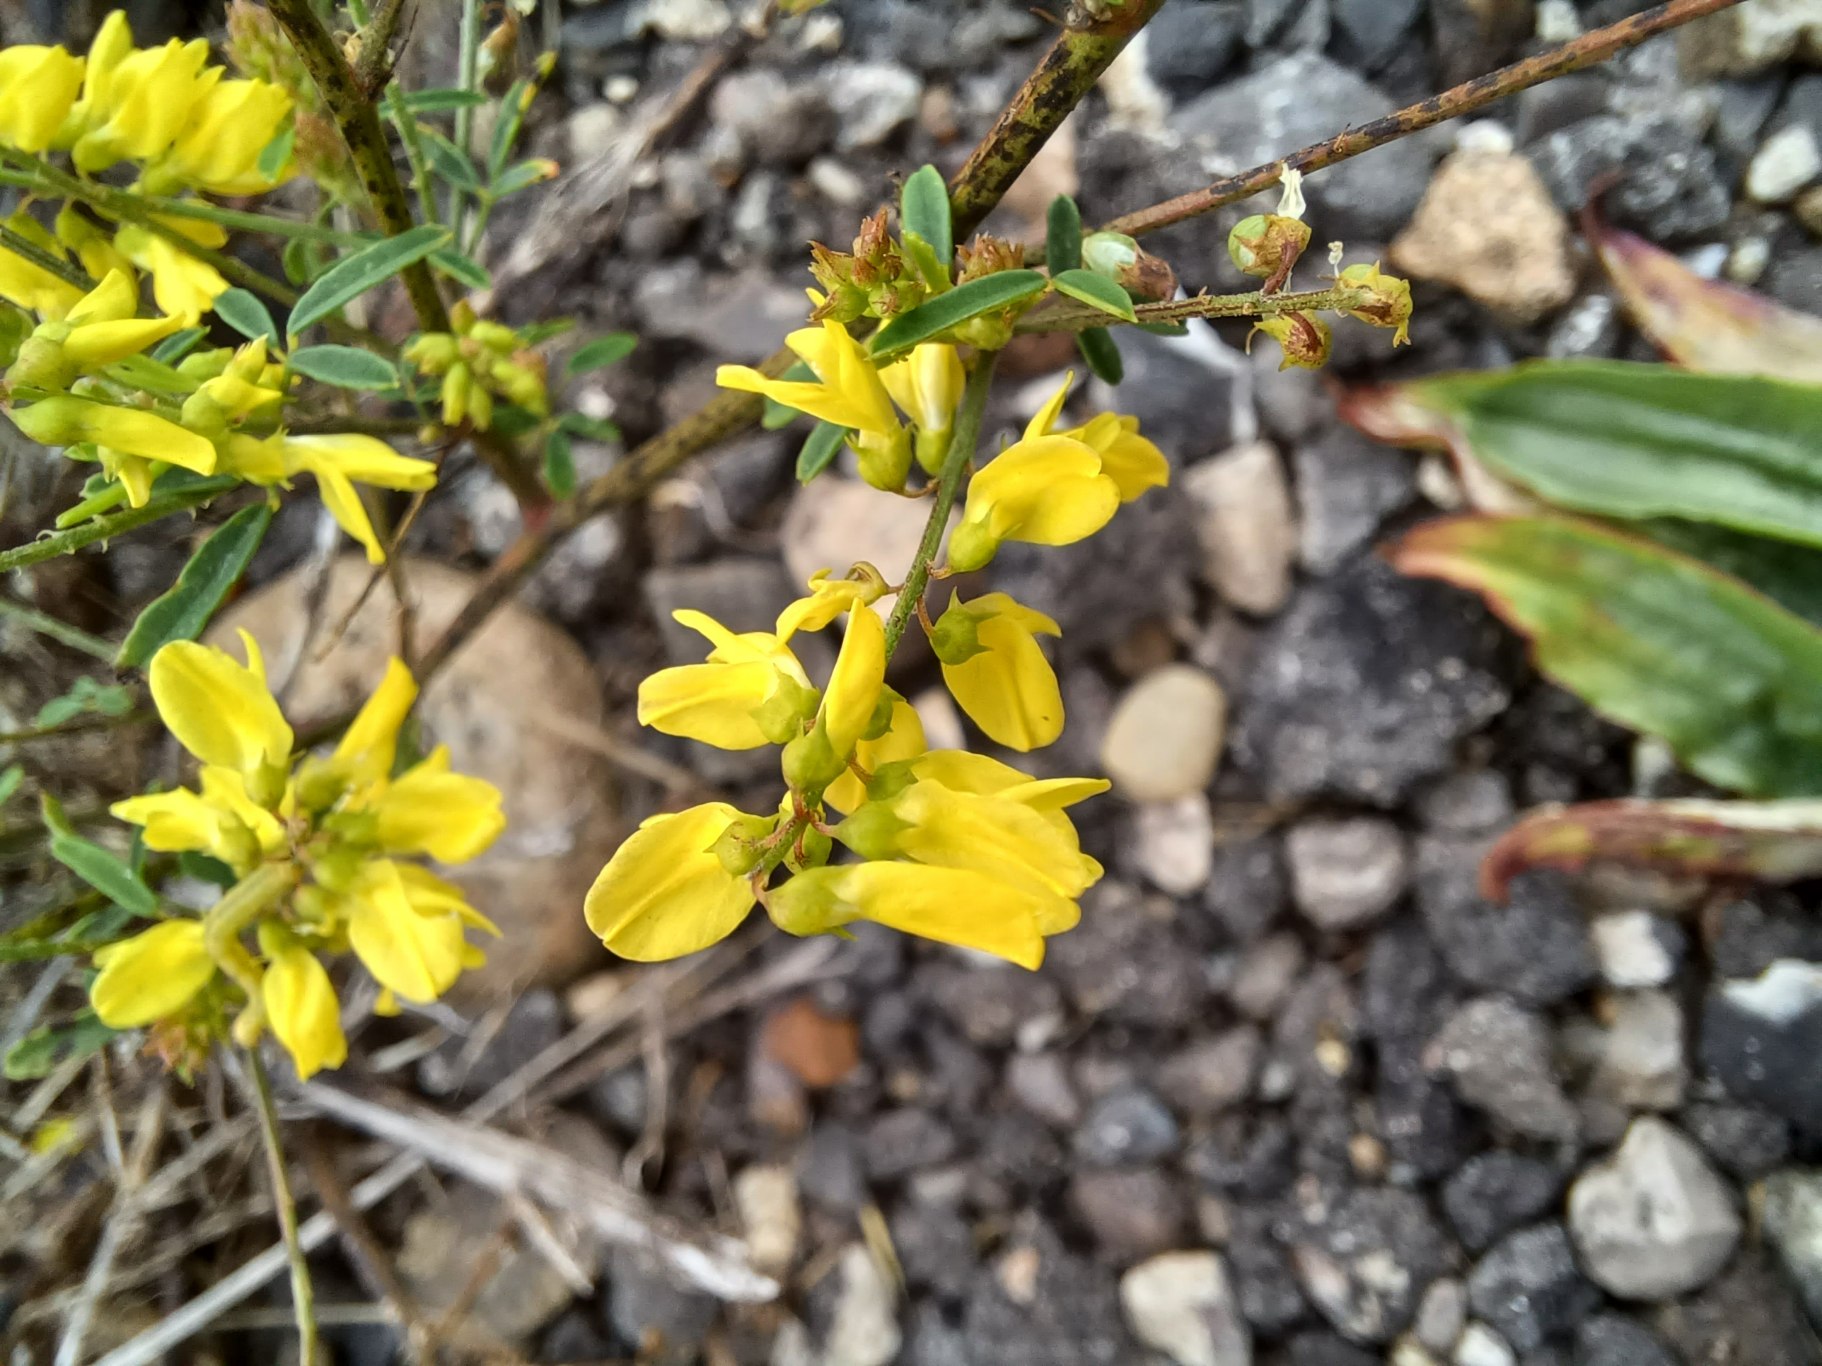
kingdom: Plantae
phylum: Tracheophyta
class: Magnoliopsida
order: Fabales
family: Fabaceae
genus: Melilotus
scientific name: Melilotus officinalis
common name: Mark-stenkløver
